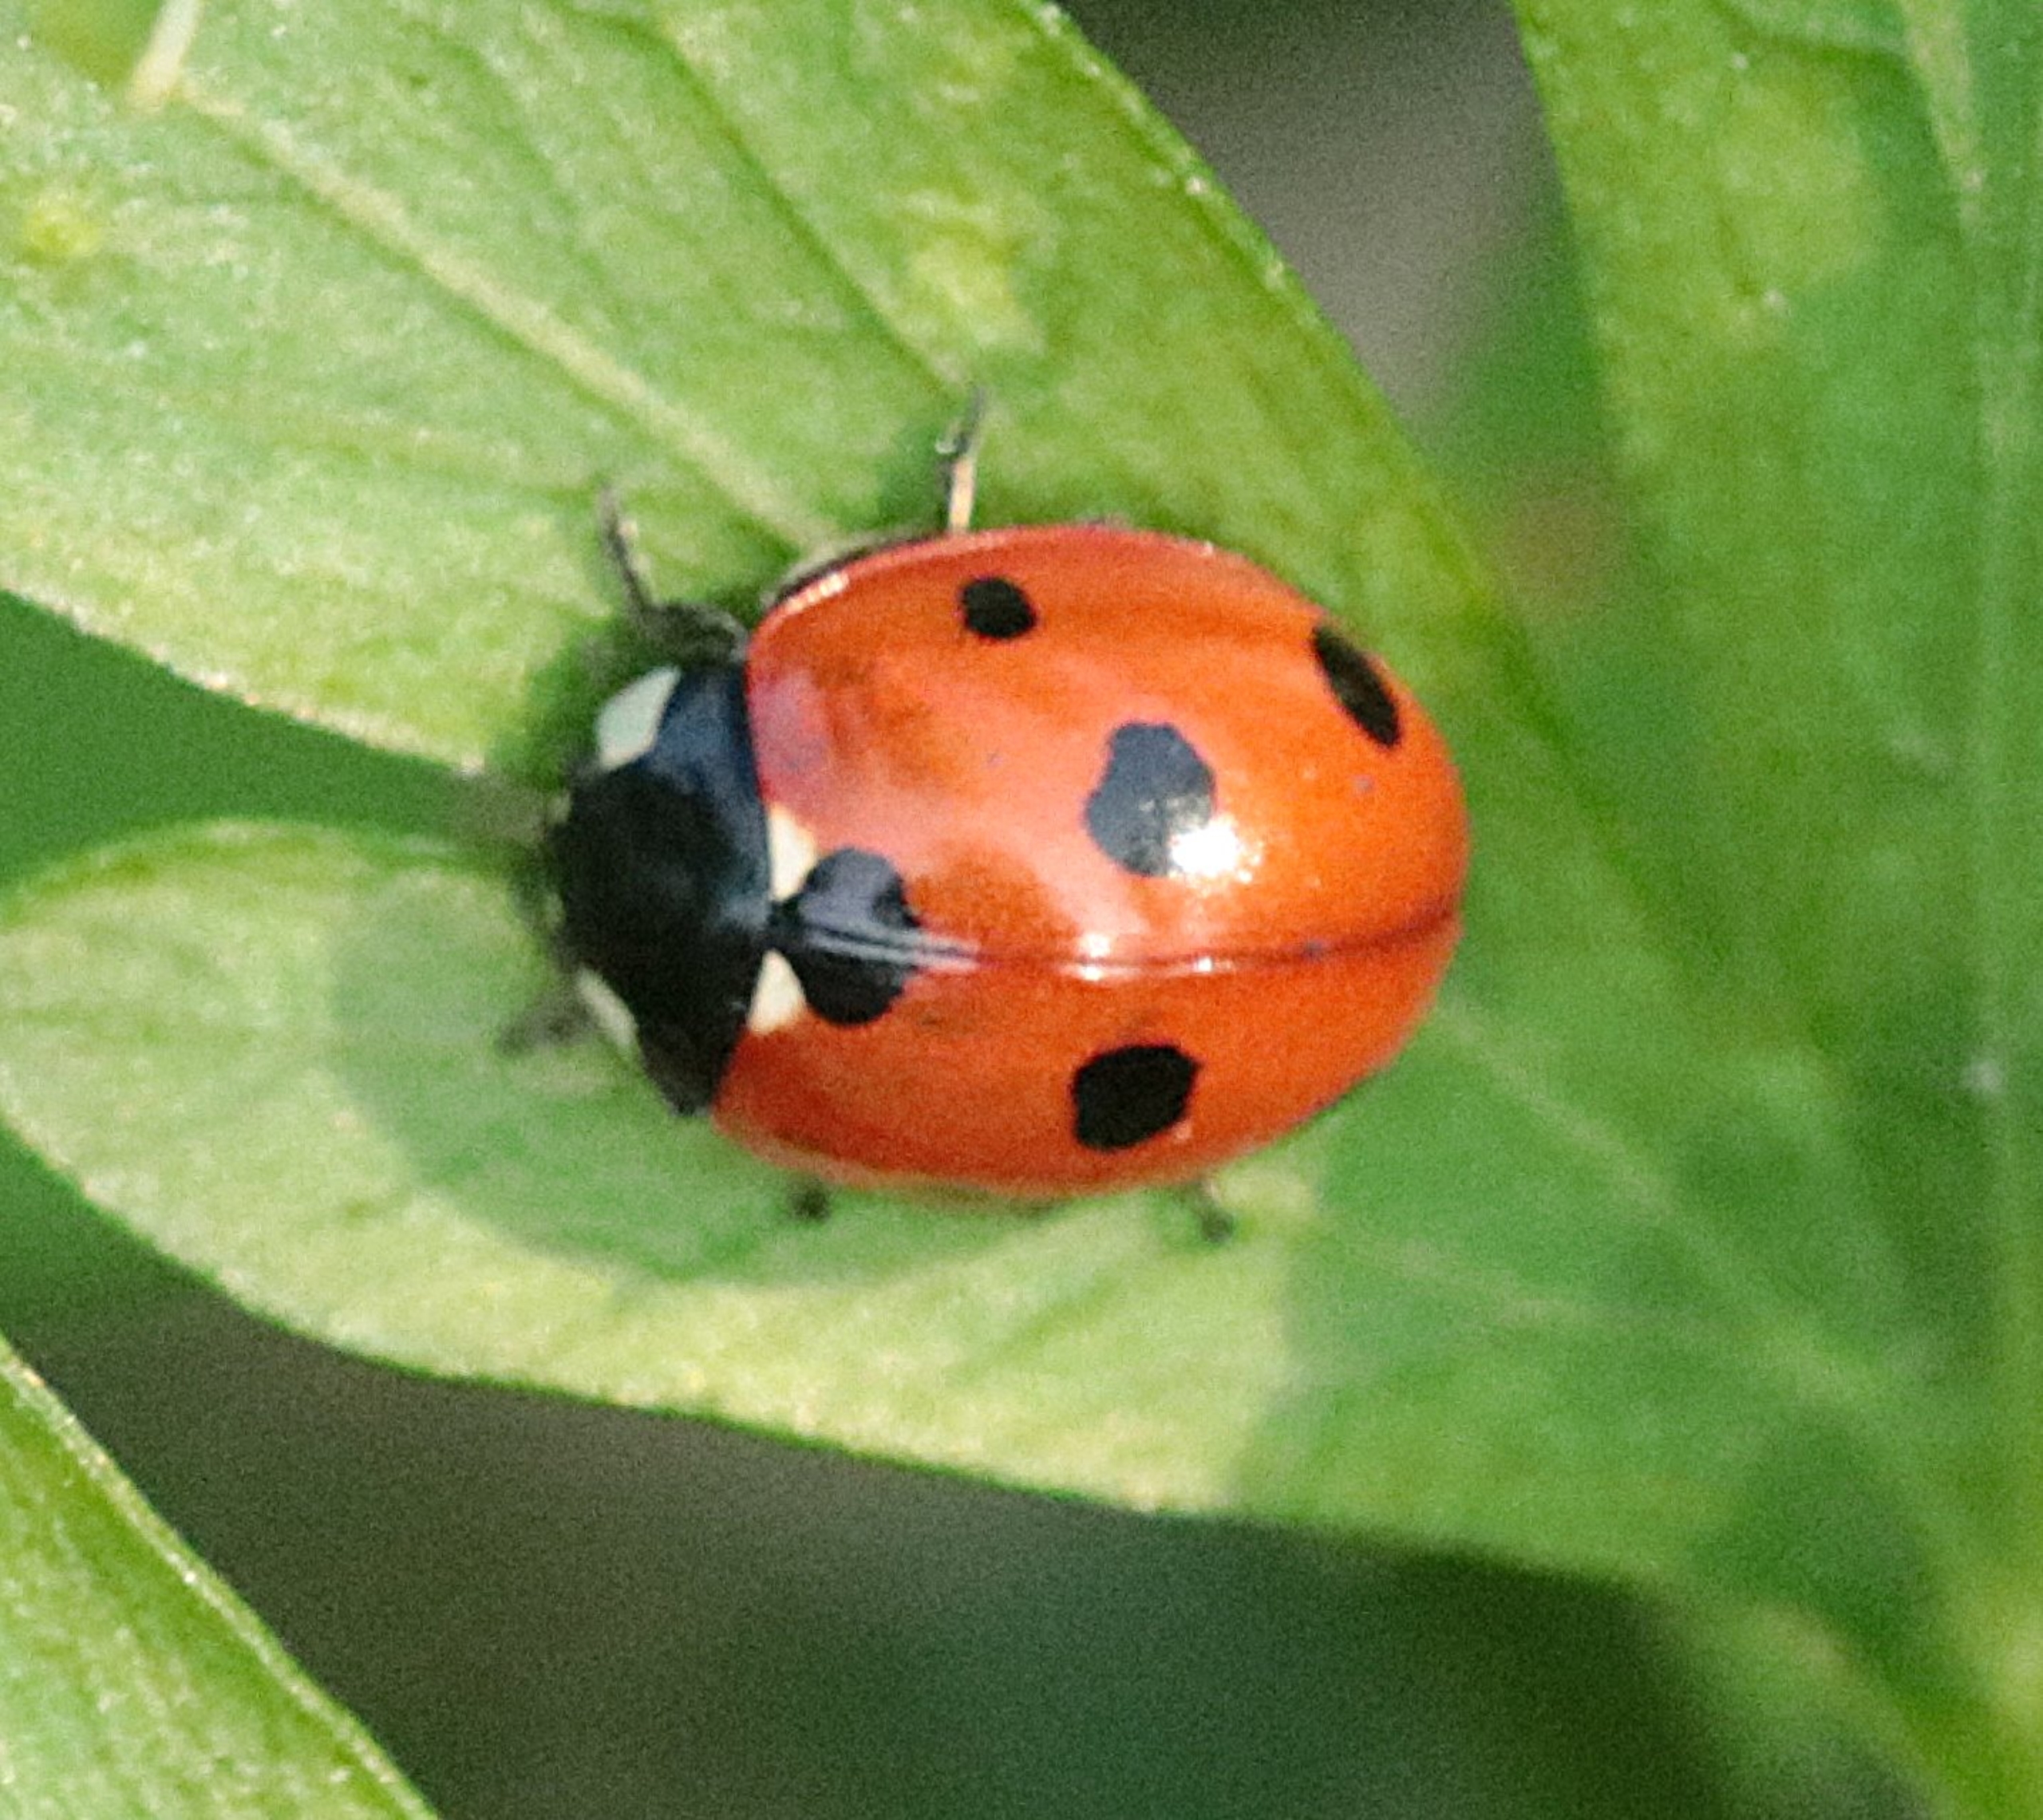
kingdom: Animalia
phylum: Arthropoda
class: Insecta
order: Coleoptera
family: Coccinellidae
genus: Coccinella
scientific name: Coccinella septempunctata
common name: Syvplettet mariehøne
